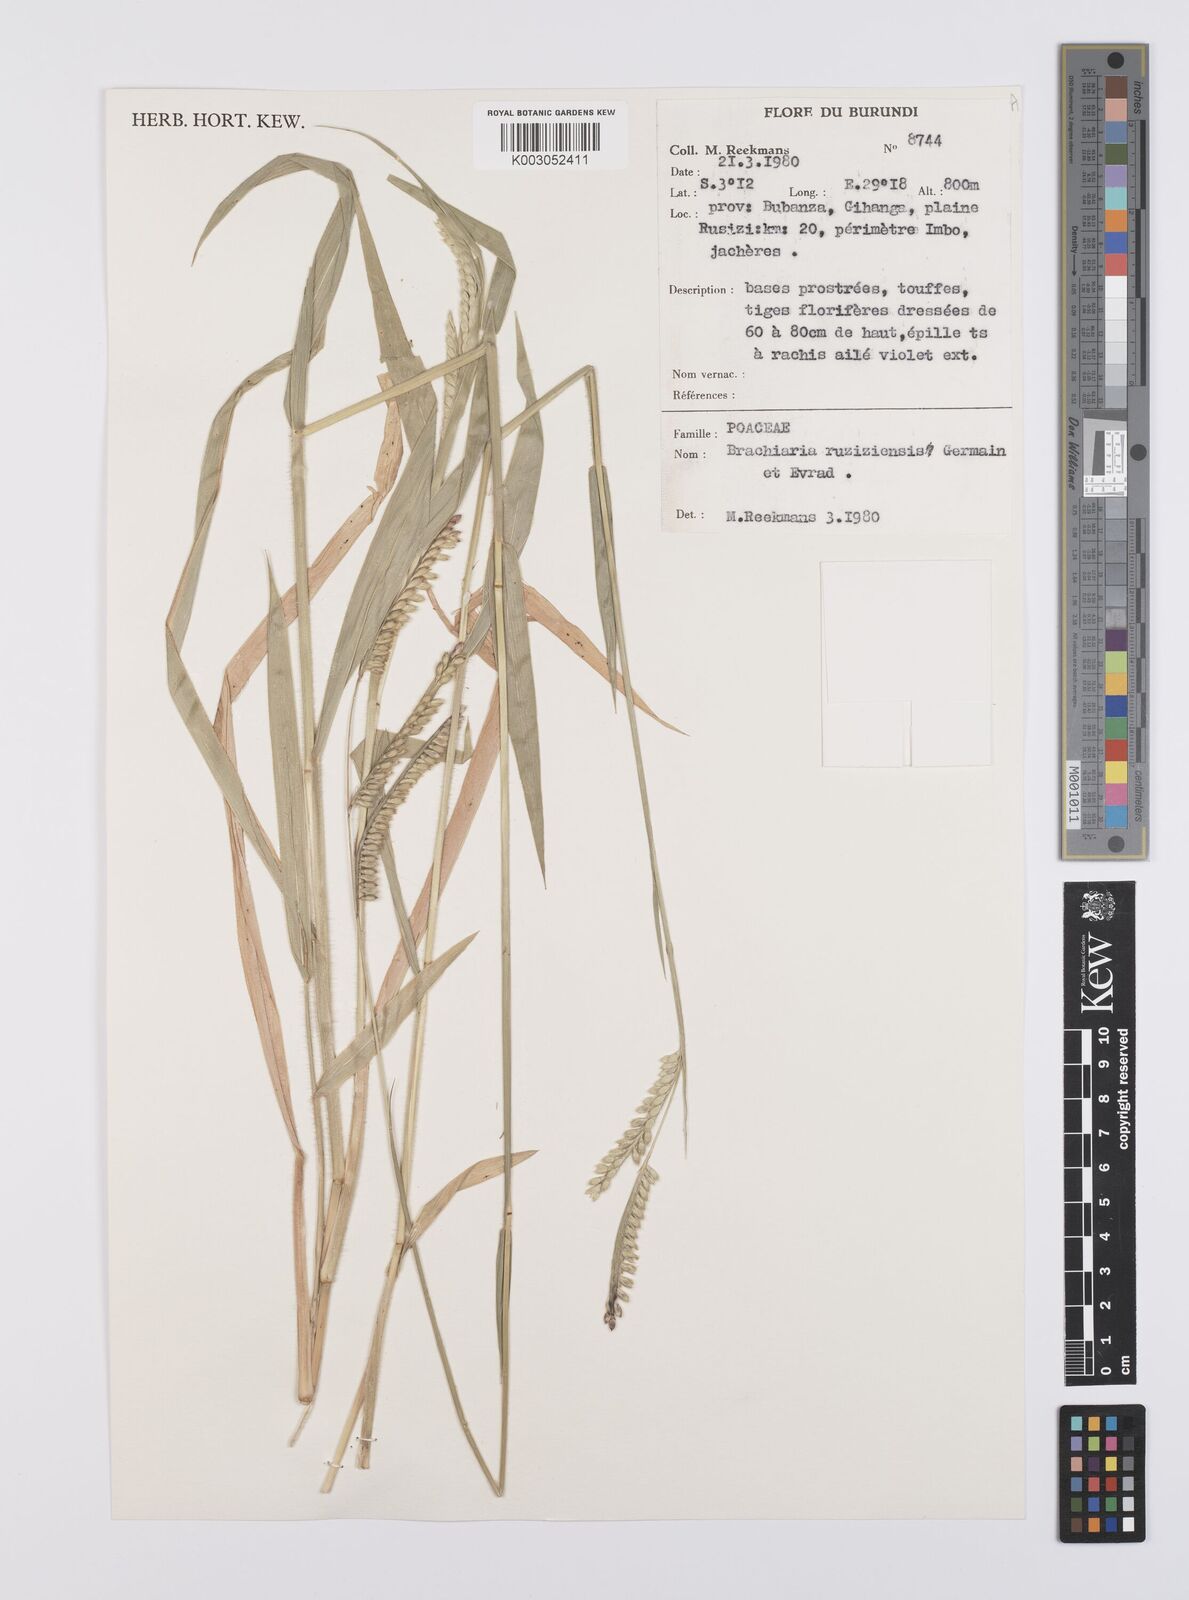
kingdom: Plantae
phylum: Tracheophyta
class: Liliopsida
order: Poales
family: Poaceae
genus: Urochloa
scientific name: Urochloa eminii
